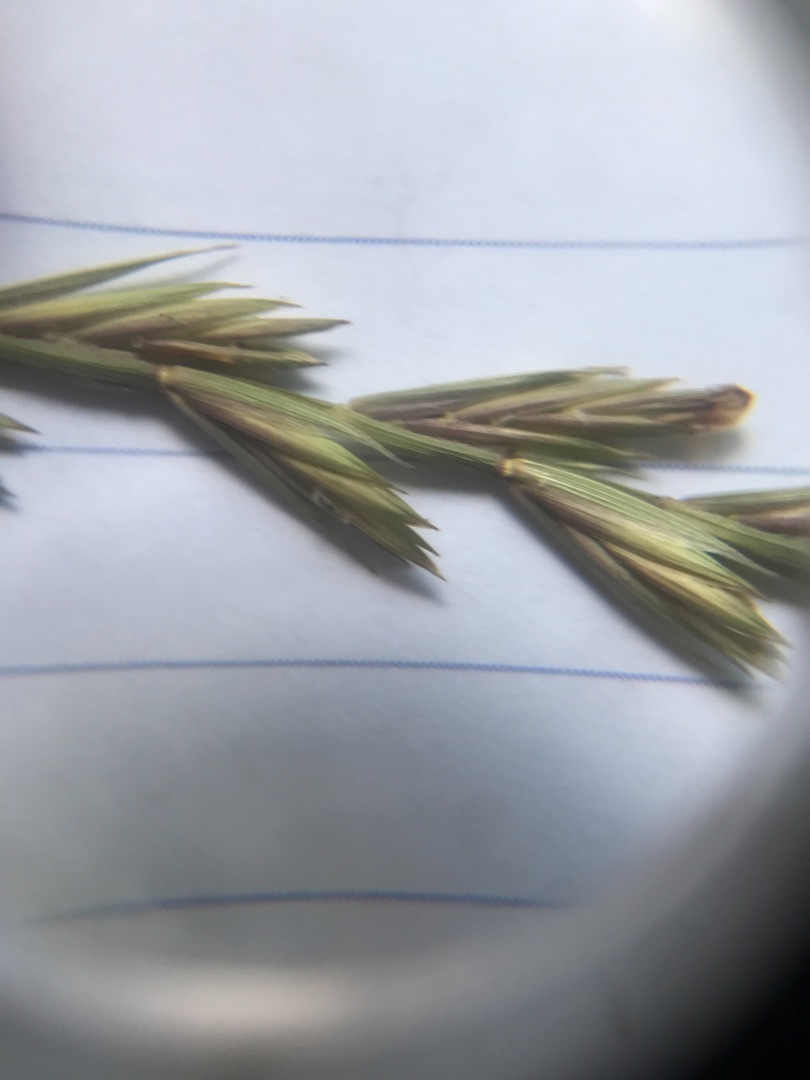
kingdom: Plantae
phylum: Tracheophyta
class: Liliopsida
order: Poales
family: Poaceae
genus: Elymus
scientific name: Elymus repens
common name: Almindelig kvik
